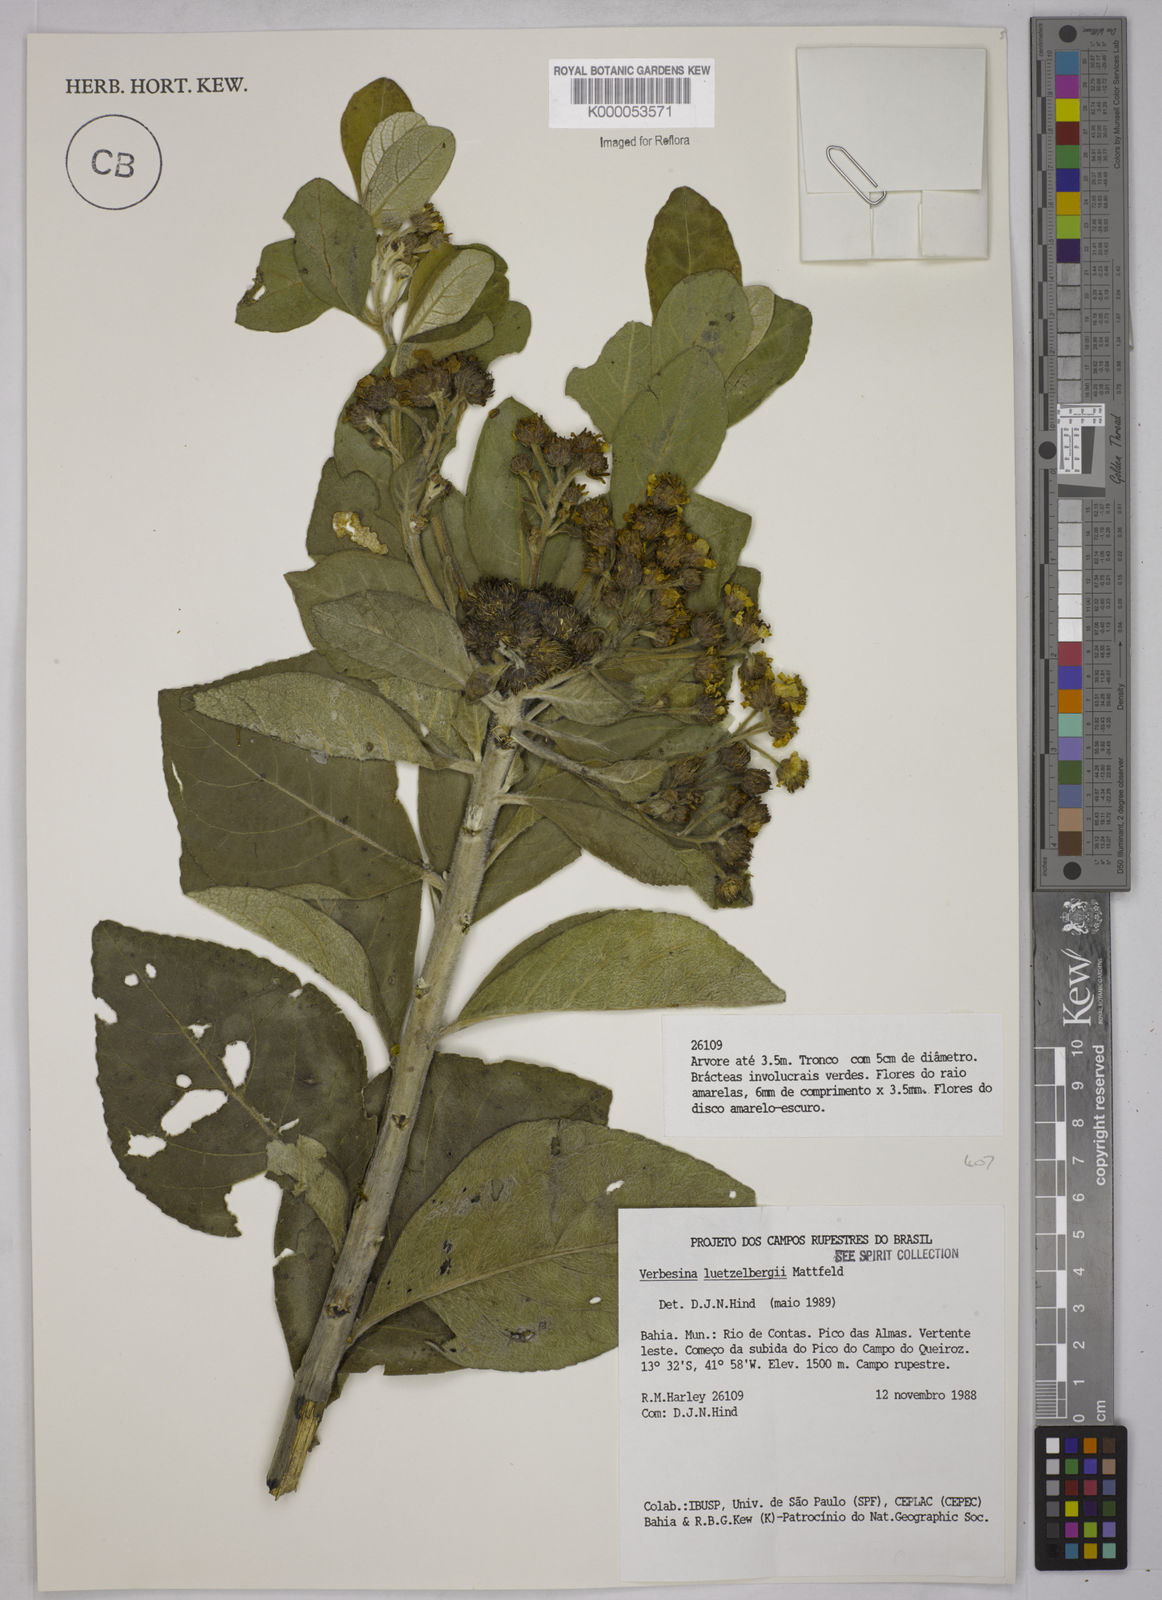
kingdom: Plantae
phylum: Tracheophyta
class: Magnoliopsida
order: Asterales
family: Asteraceae
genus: Verbesina
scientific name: Verbesina luetzelburgii
